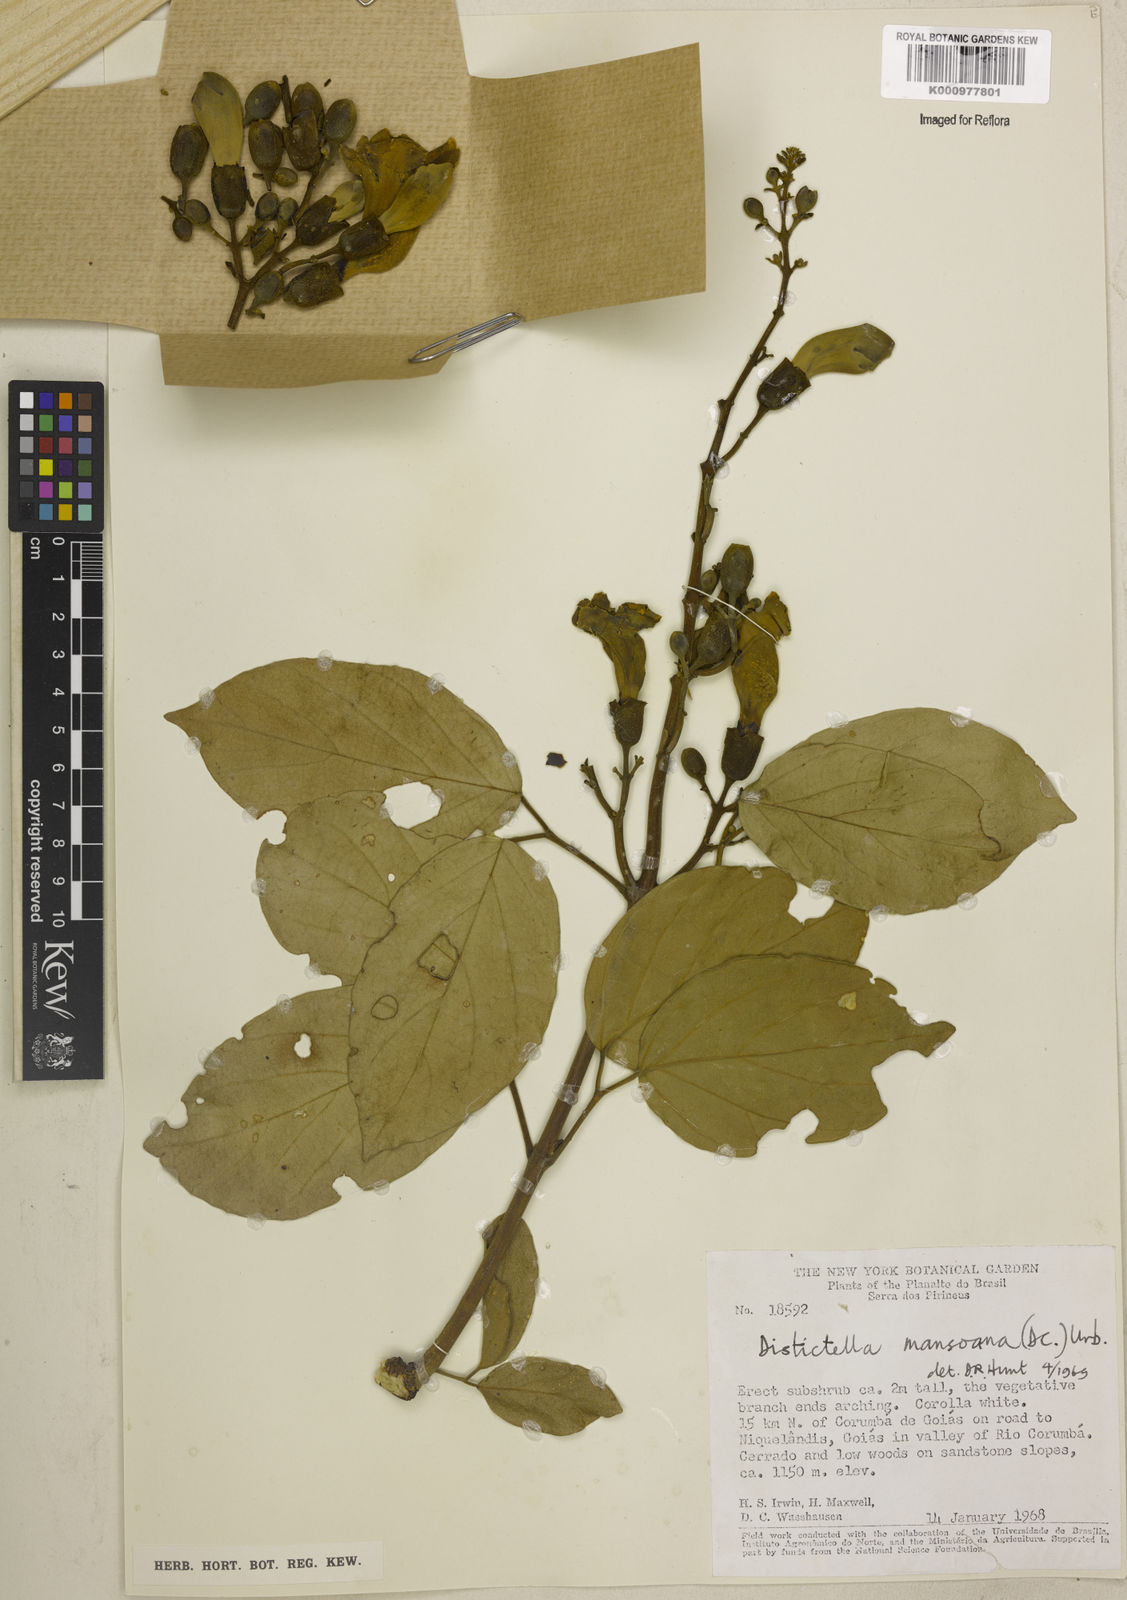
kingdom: Plantae
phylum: Tracheophyta
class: Magnoliopsida
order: Lamiales
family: Bignoniaceae
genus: Amphilophium
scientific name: Amphilophium mansoanum
